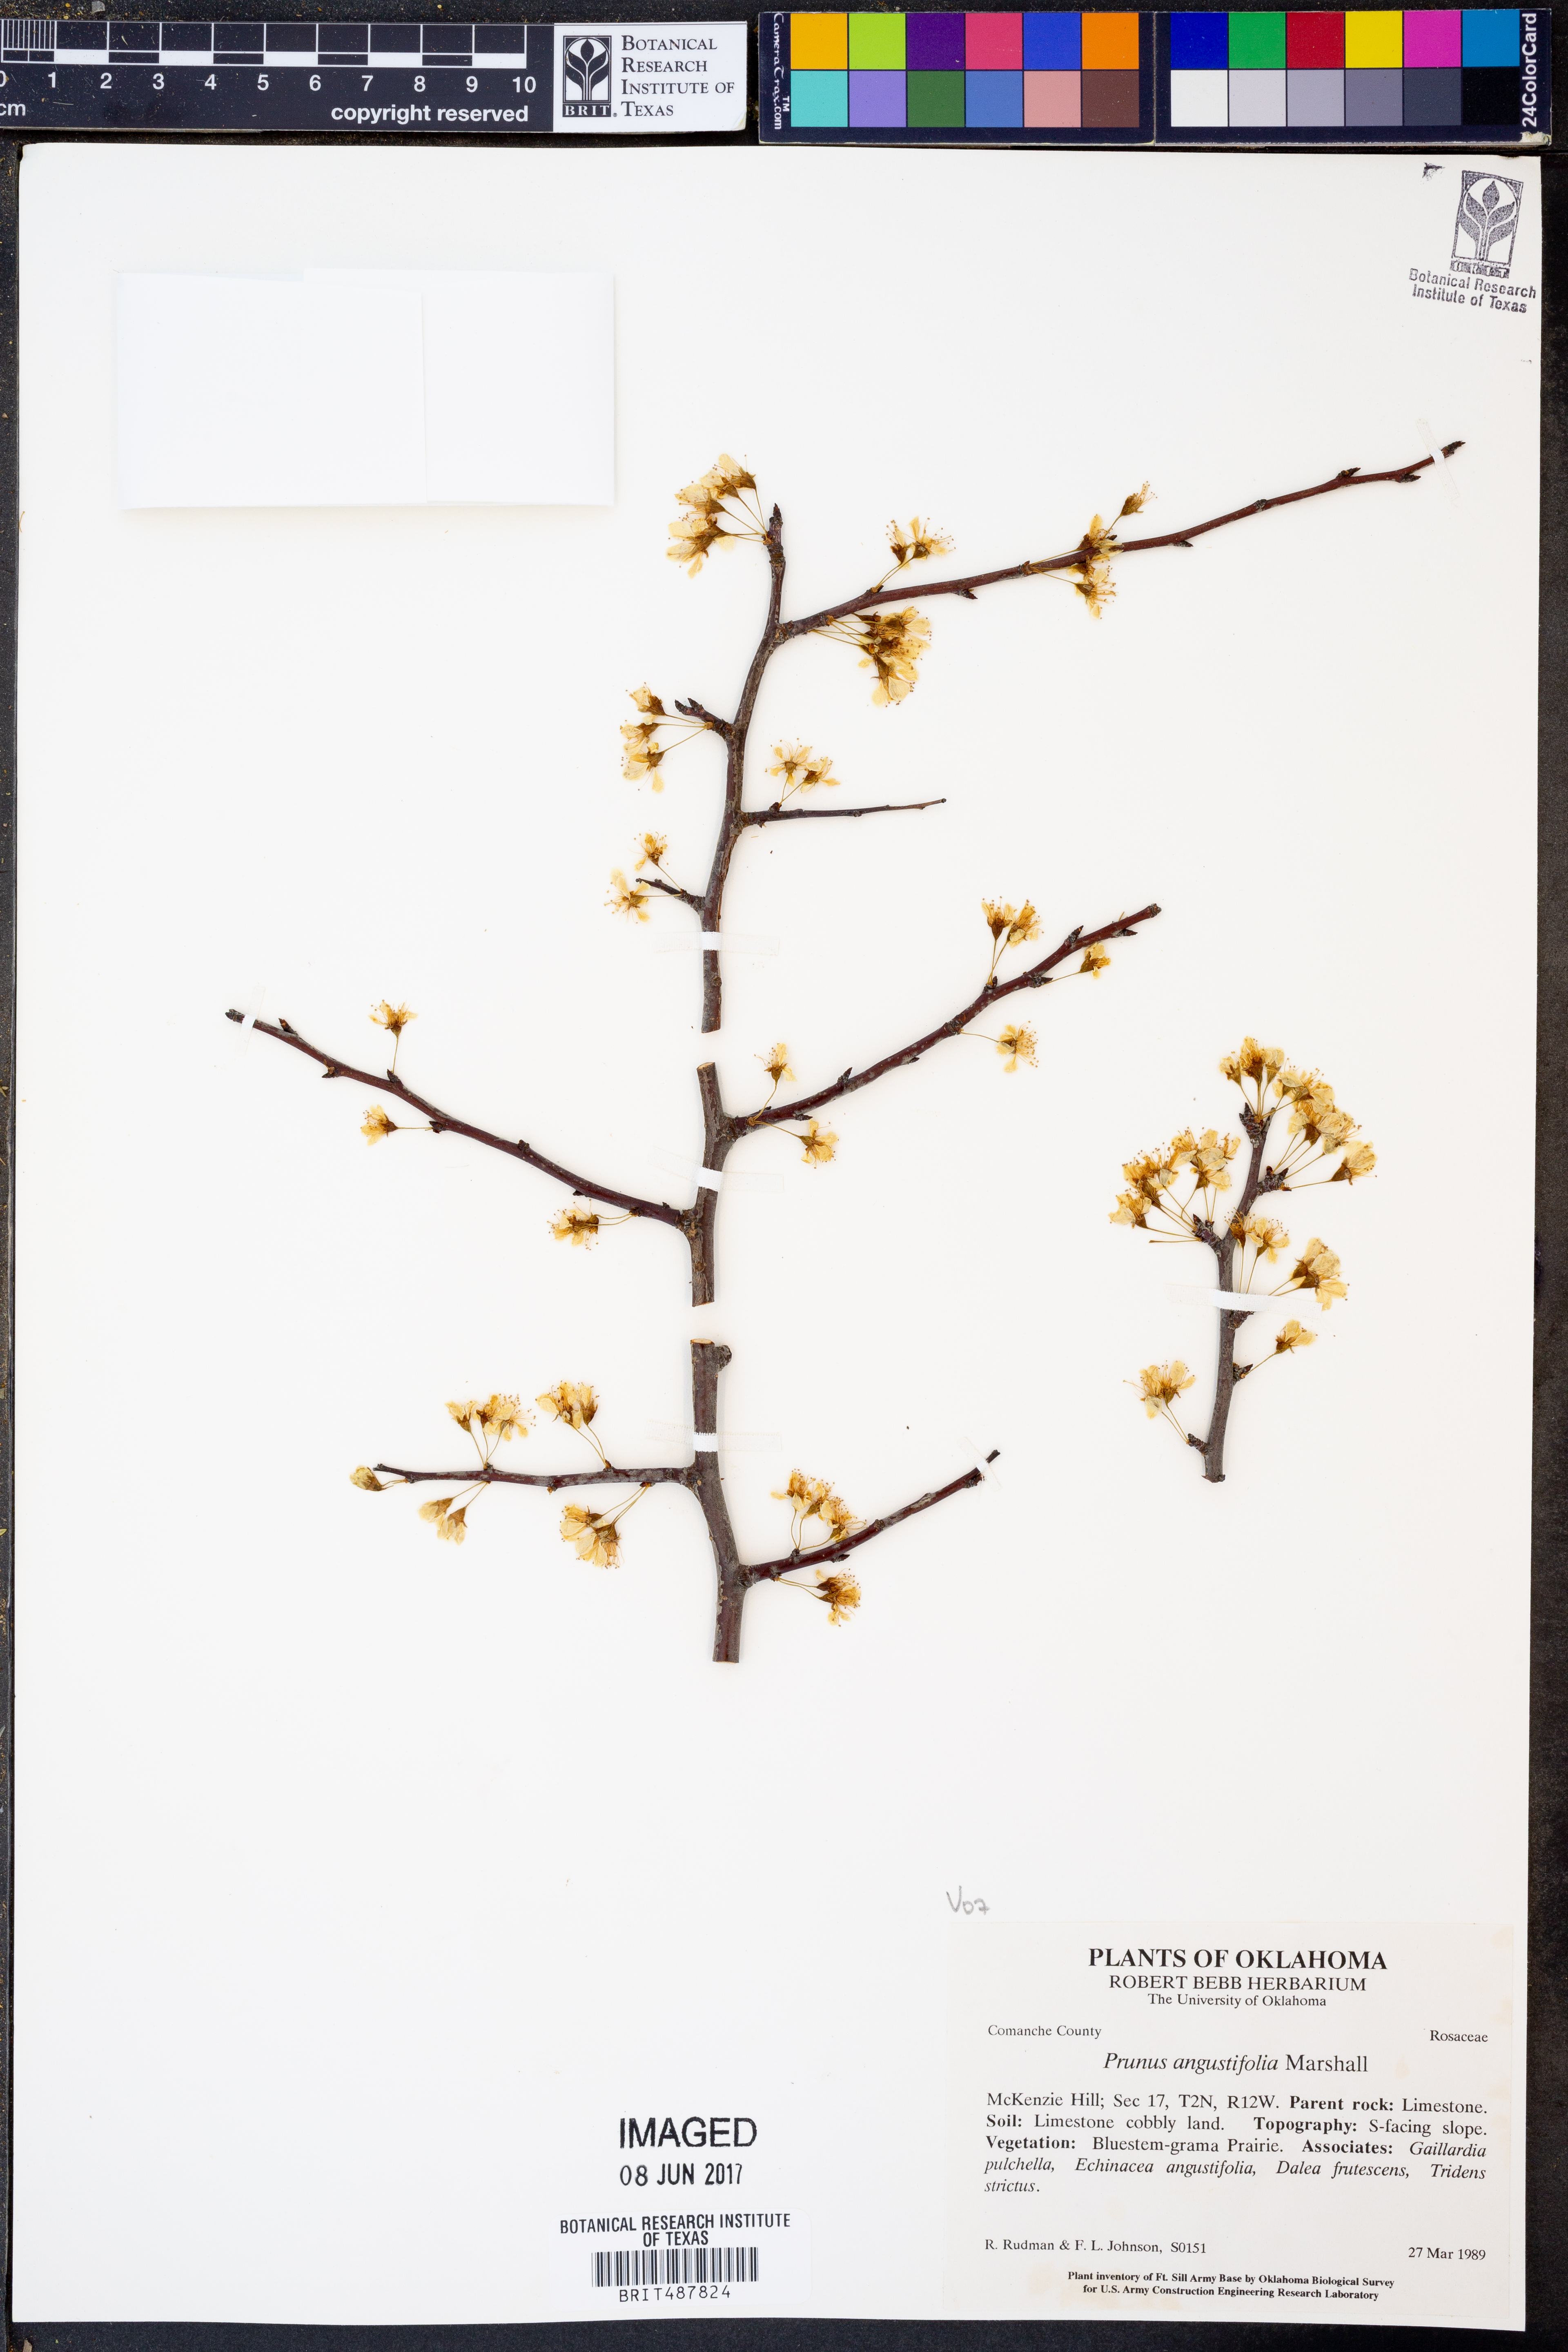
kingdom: Plantae
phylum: Tracheophyta
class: Magnoliopsida
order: Rosales
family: Rosaceae
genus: Prunus
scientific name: Prunus angustifolia
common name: Cherokee plum
